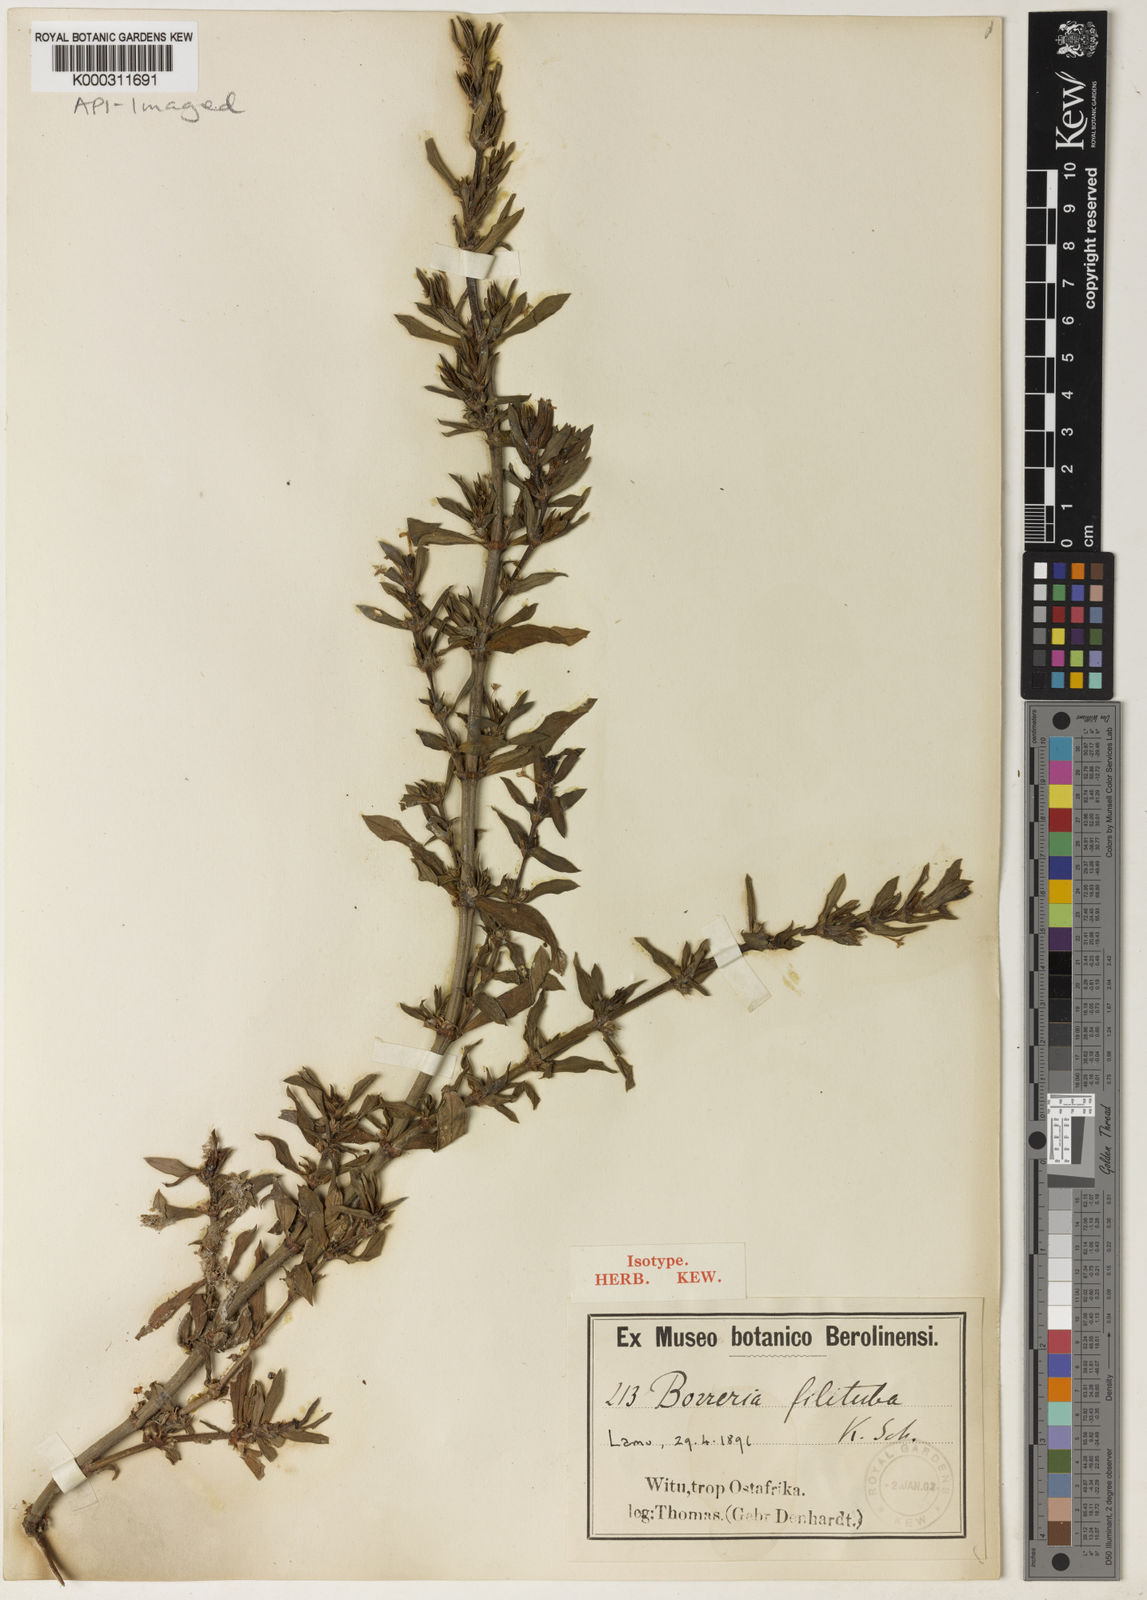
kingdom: Plantae
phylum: Tracheophyta
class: Magnoliopsida
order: Gentianales
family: Rubiaceae
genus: Spermacoce
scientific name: Spermacoce filituba
